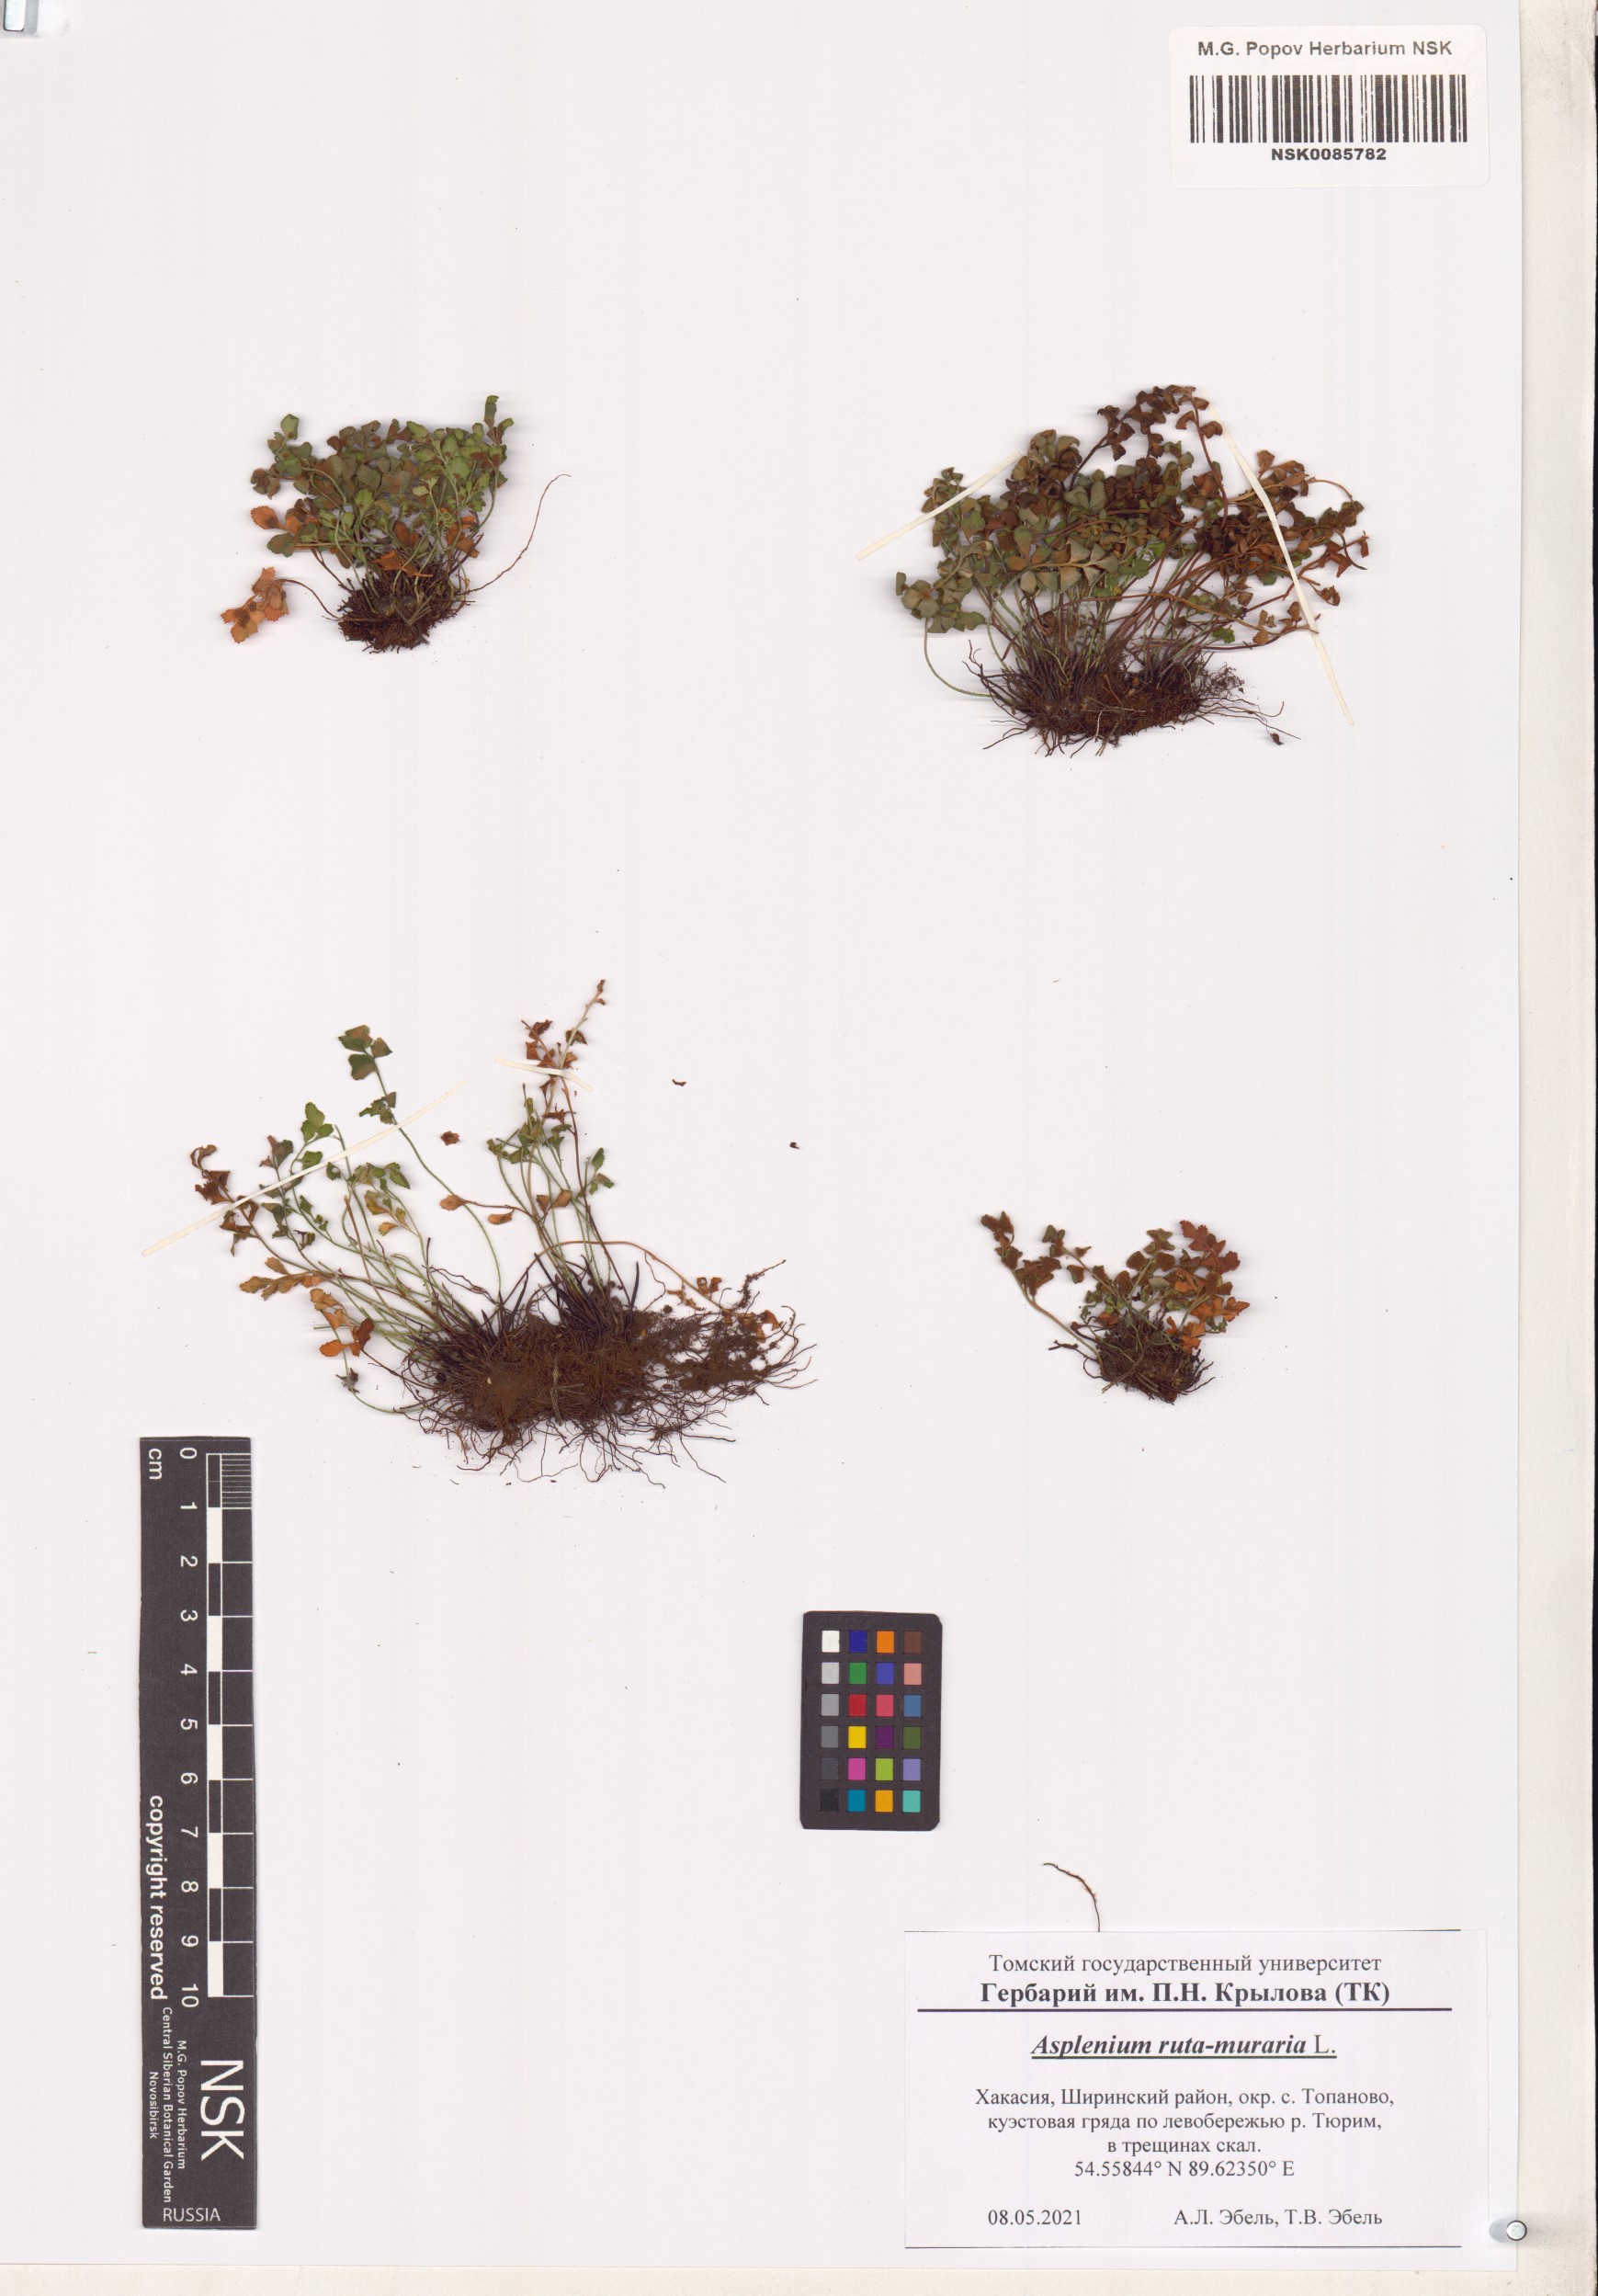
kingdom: Plantae
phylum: Tracheophyta
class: Polypodiopsida
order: Polypodiales
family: Aspleniaceae
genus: Asplenium
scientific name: Asplenium ruta-muraria
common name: Wall-rue
